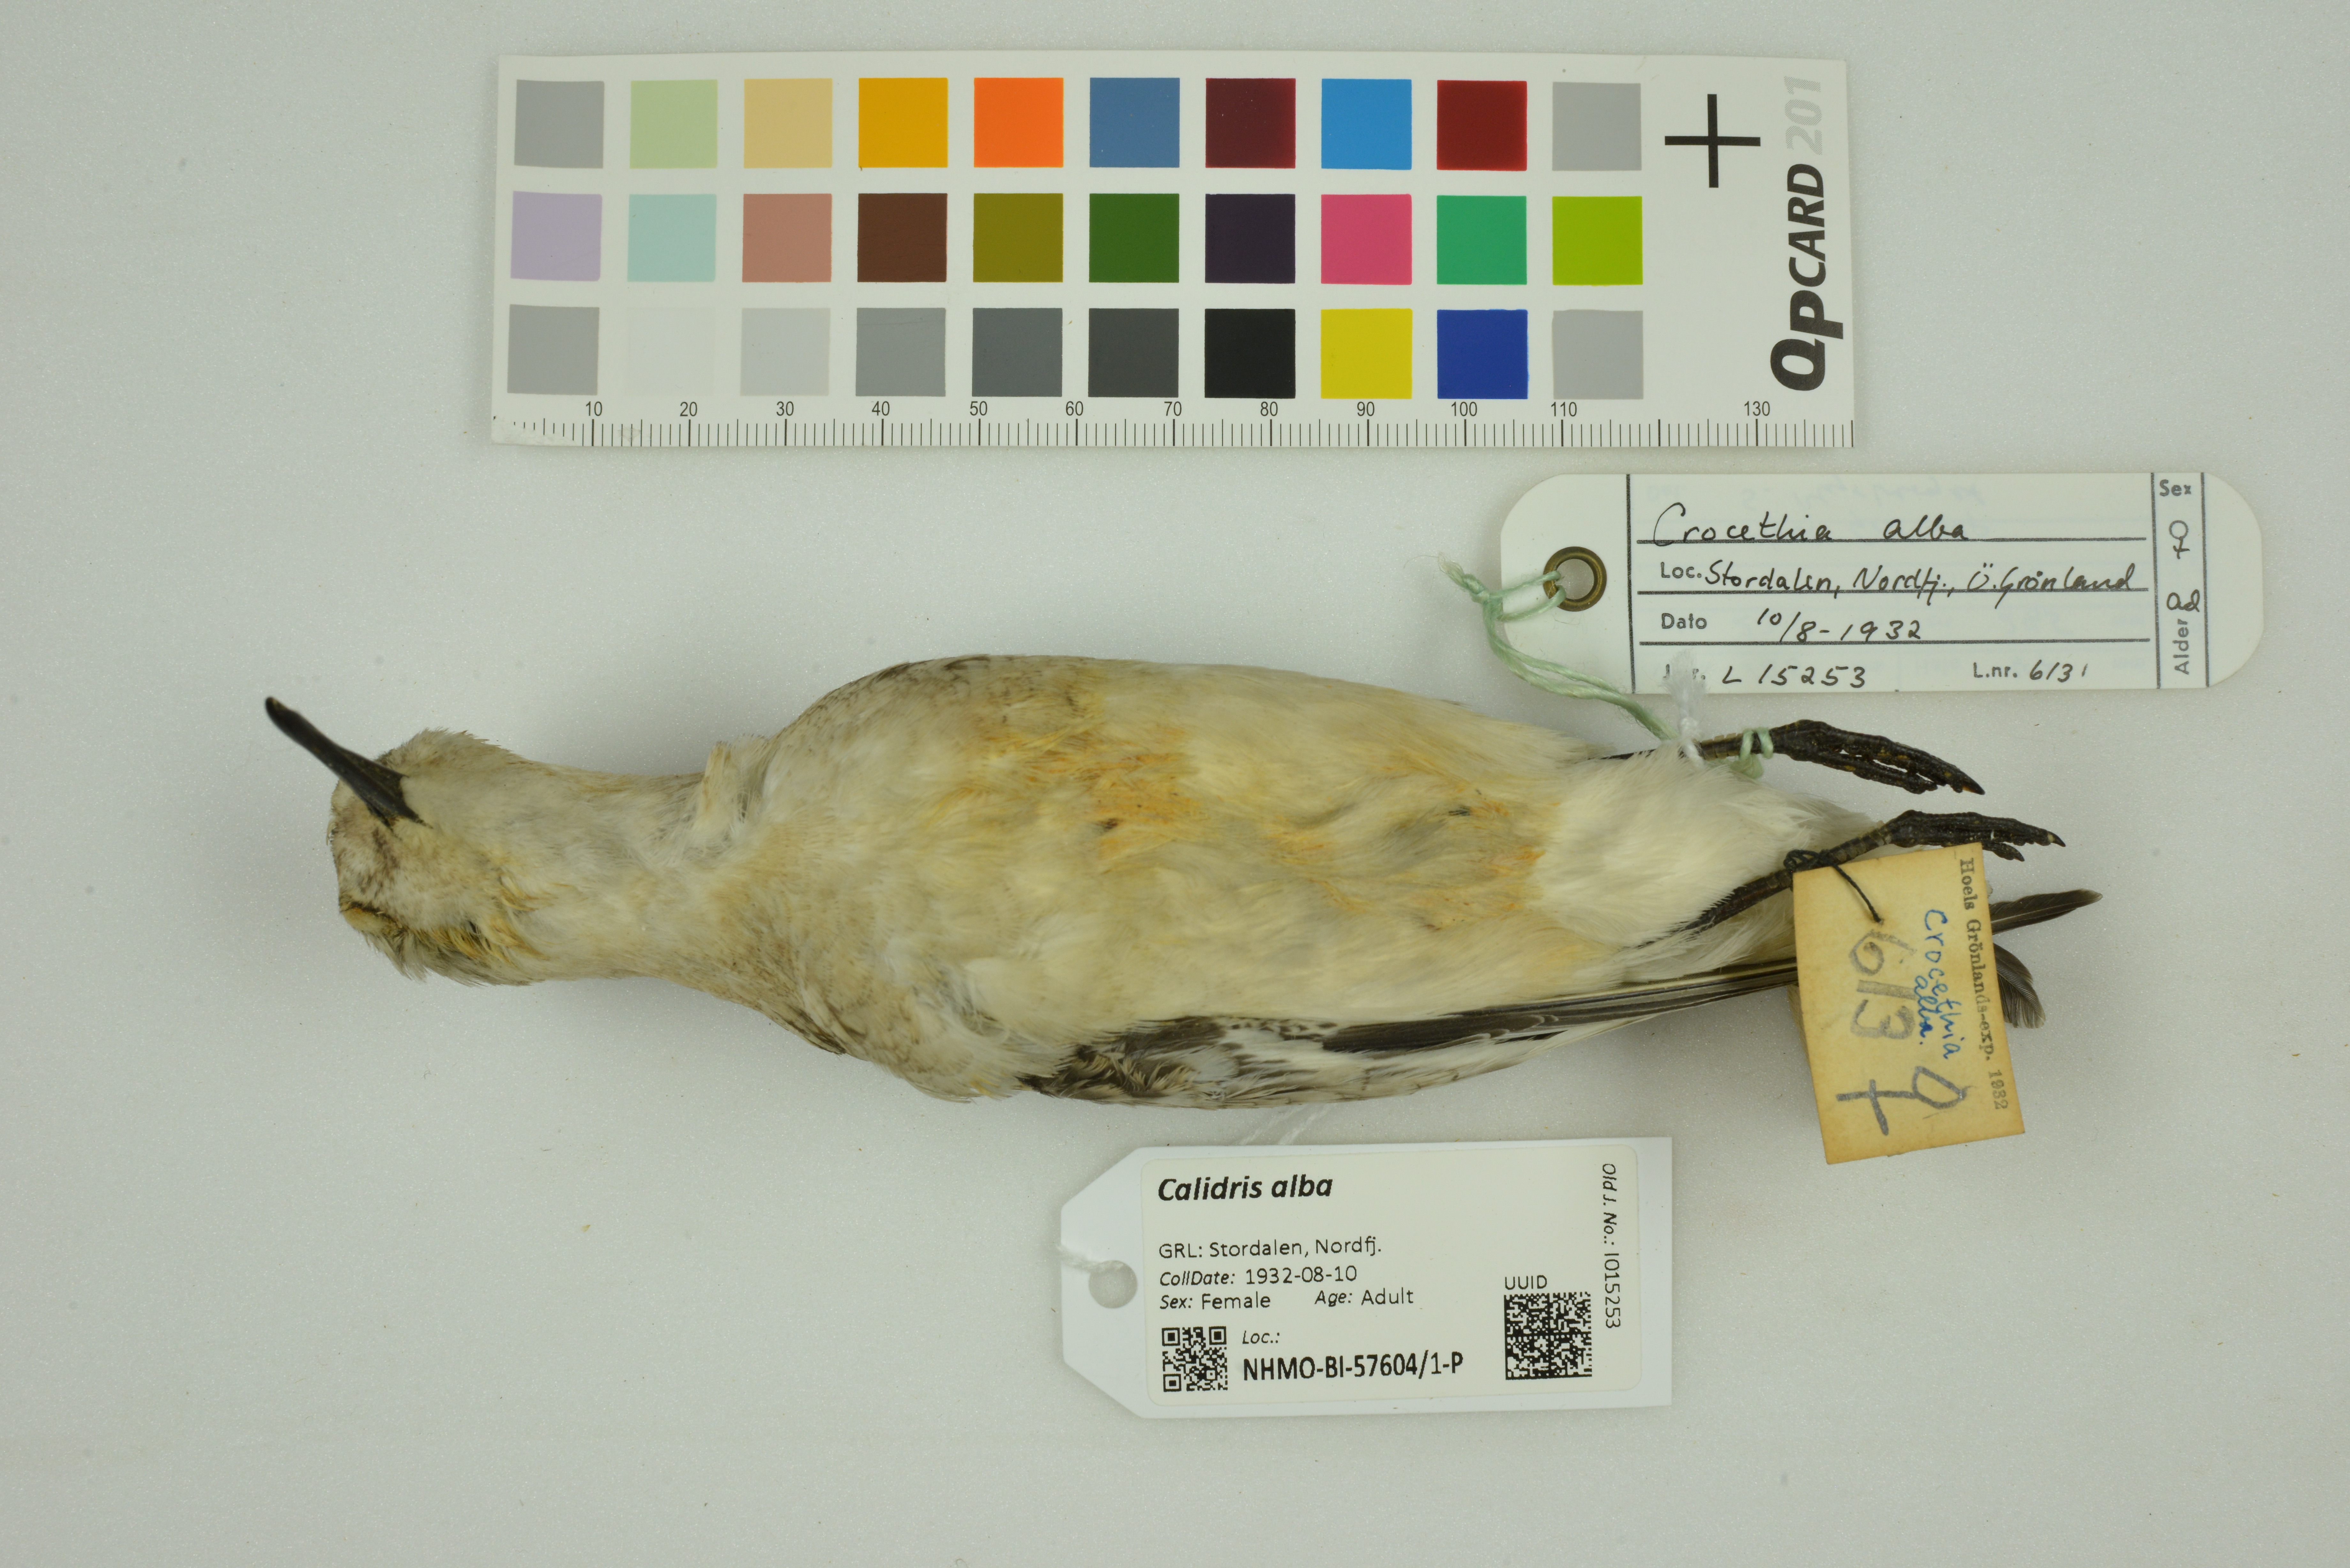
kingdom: Animalia
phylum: Chordata
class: Aves
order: Charadriiformes
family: Scolopacidae
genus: Calidris
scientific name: Calidris alba
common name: Sanderling
